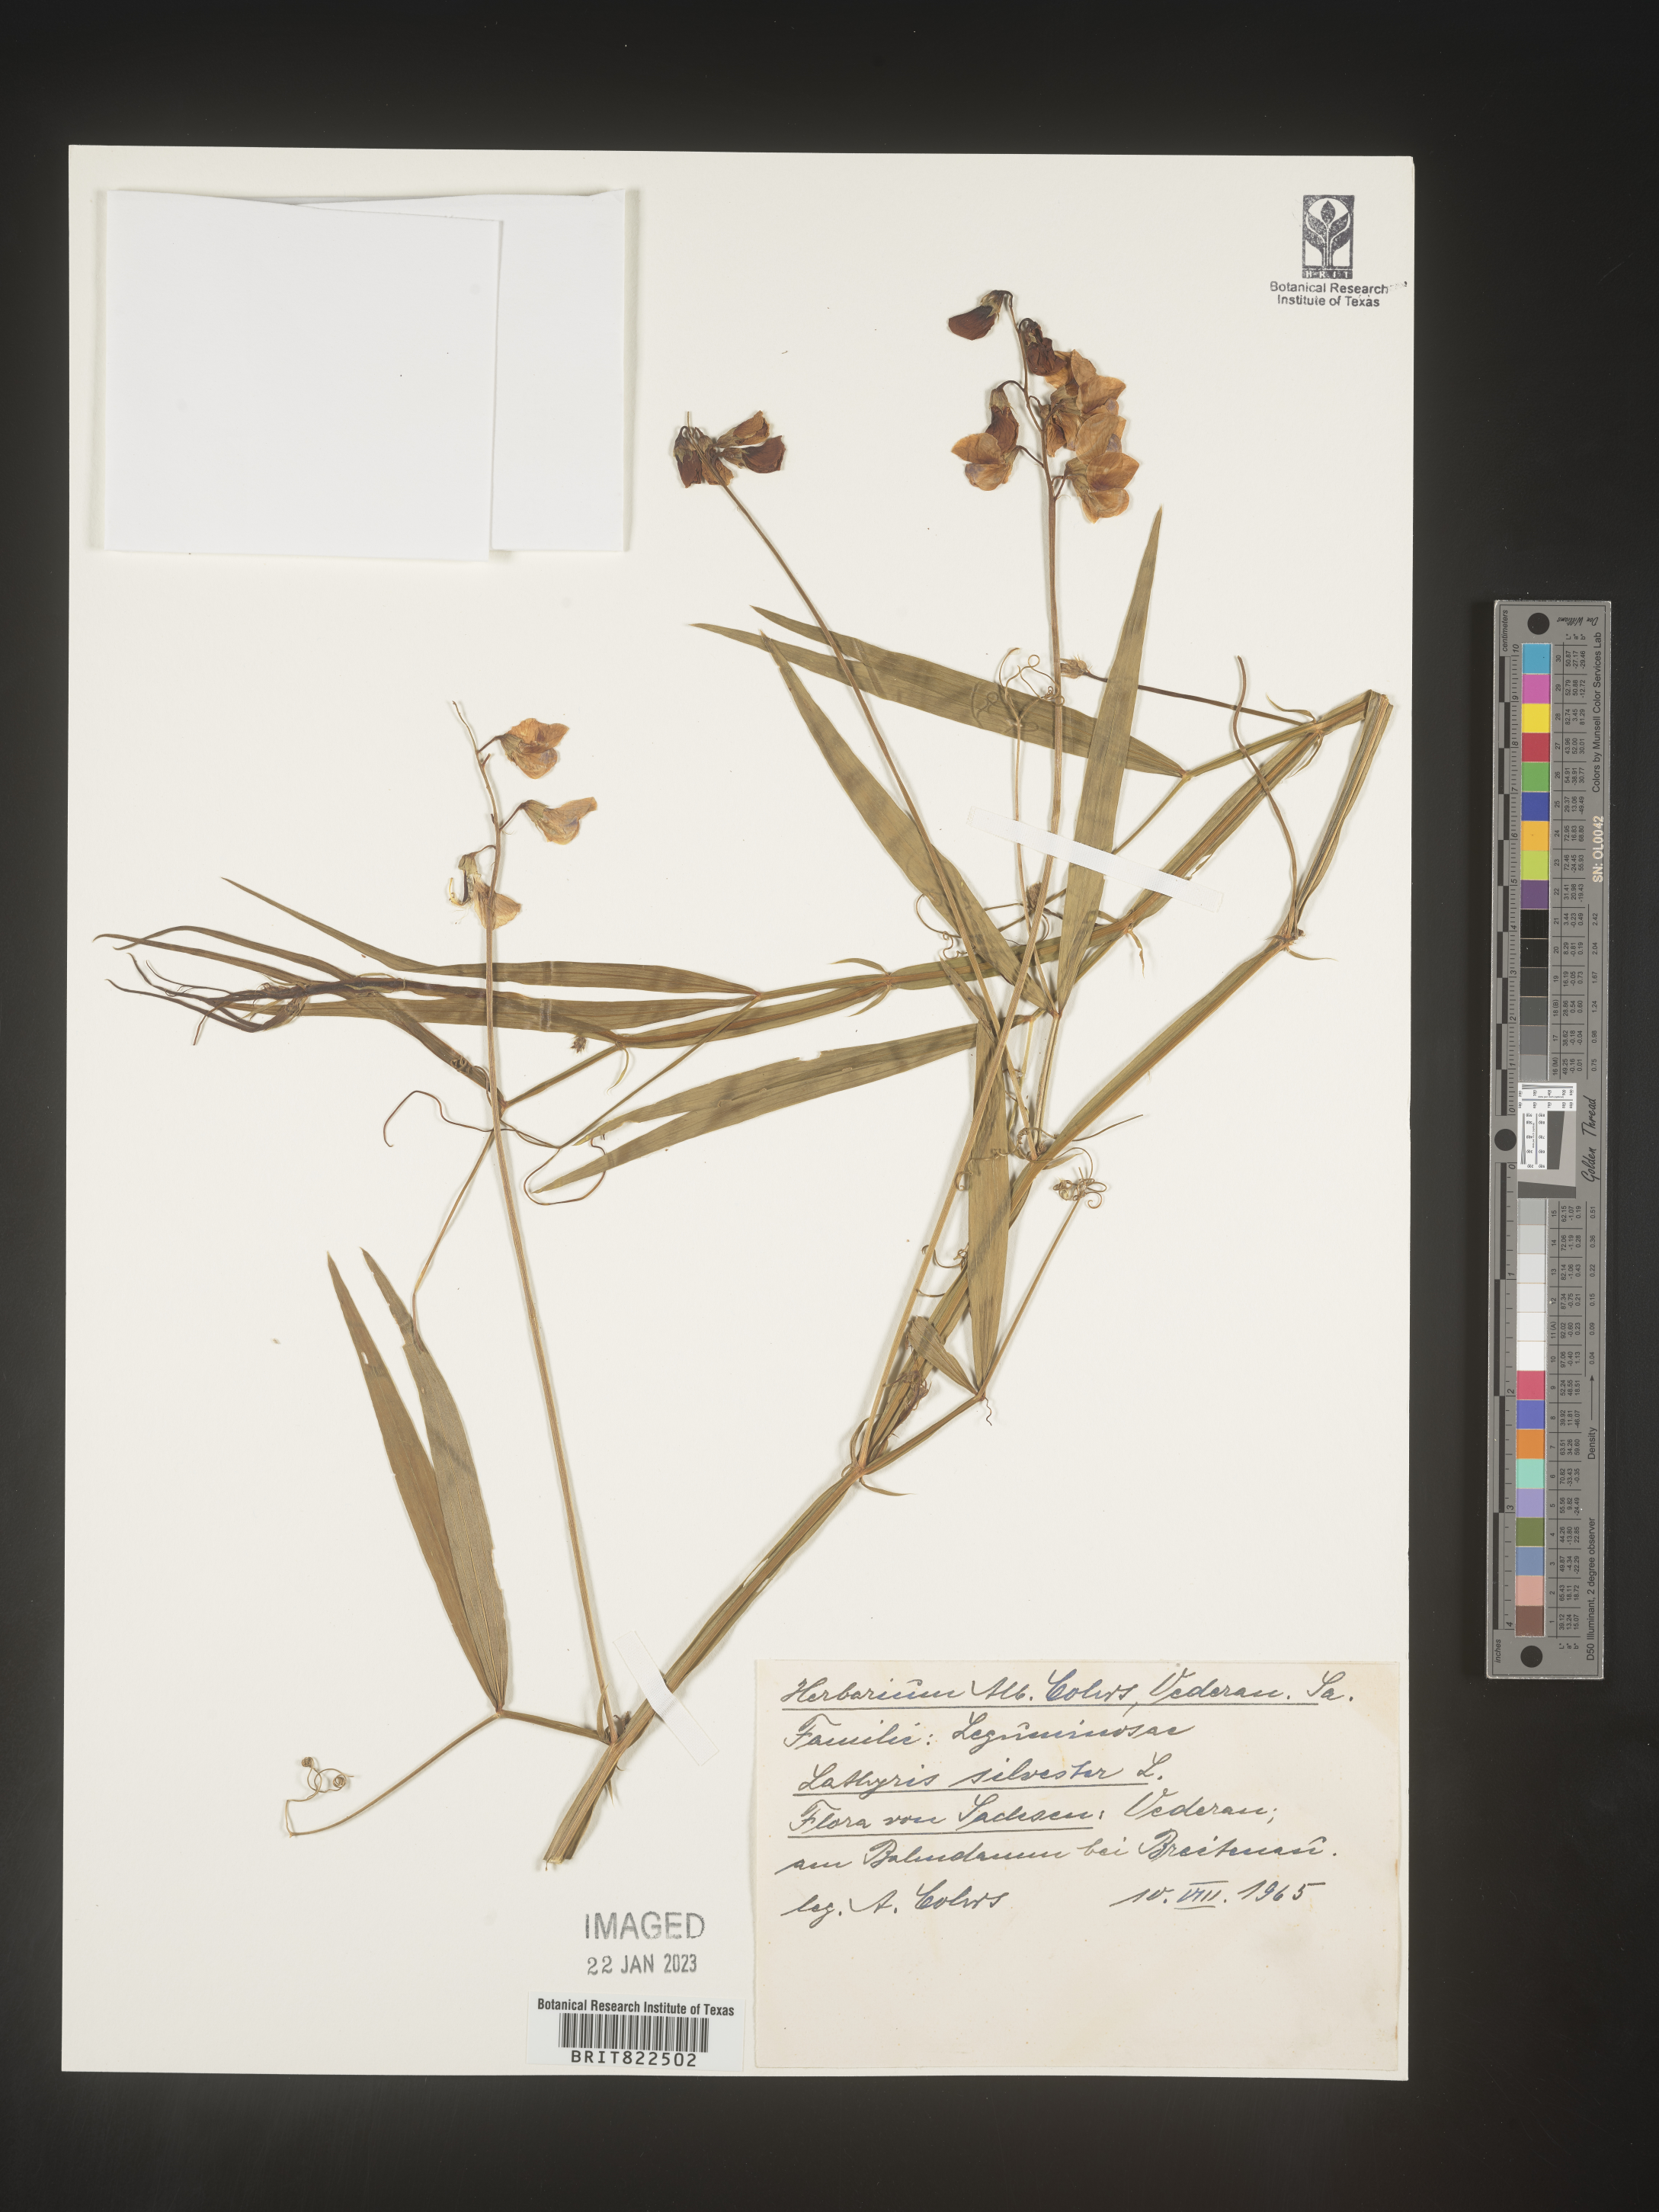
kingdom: Plantae
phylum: Tracheophyta
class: Magnoliopsida
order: Fabales
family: Fabaceae
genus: Lathyrus
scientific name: Lathyrus
